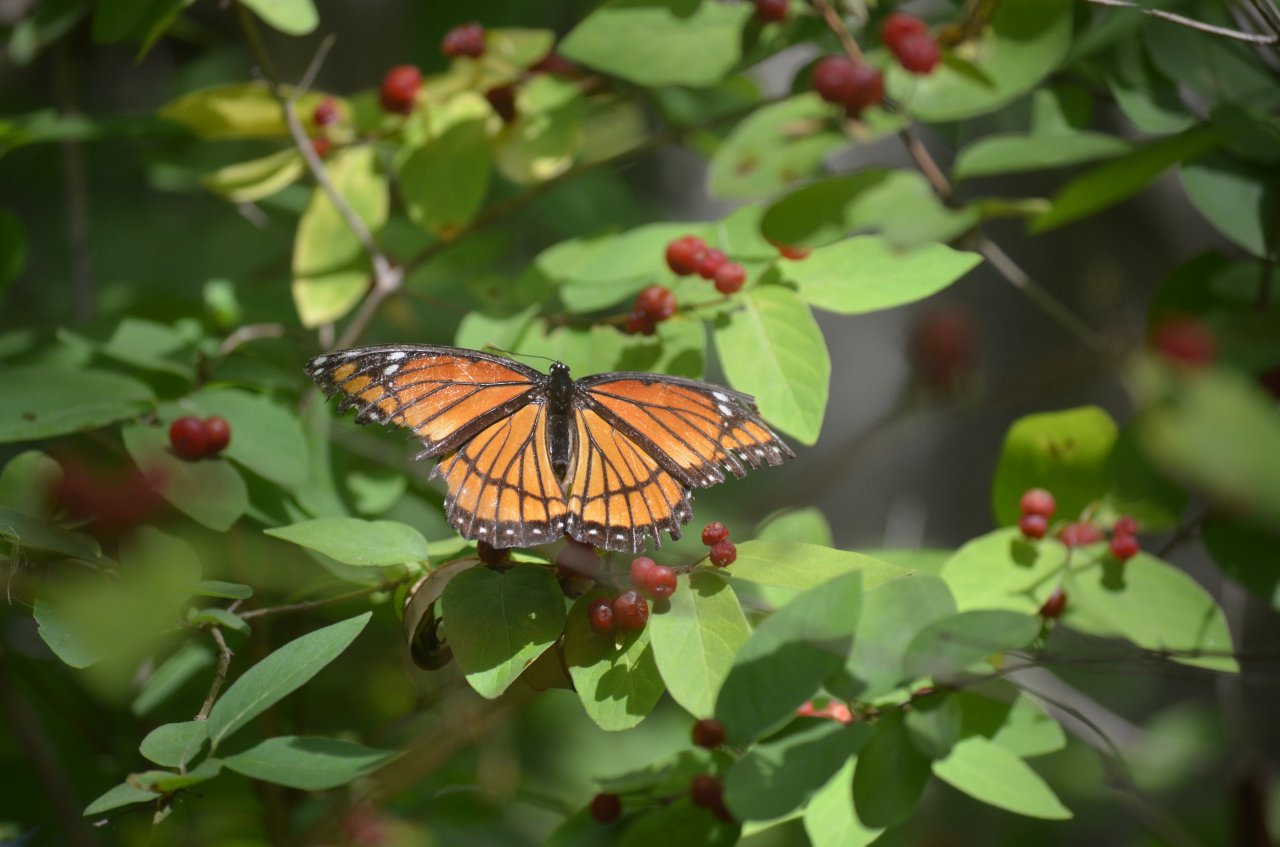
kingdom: Animalia
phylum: Arthropoda
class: Insecta
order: Lepidoptera
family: Nymphalidae
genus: Limenitis
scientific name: Limenitis archippus
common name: Viceroy
